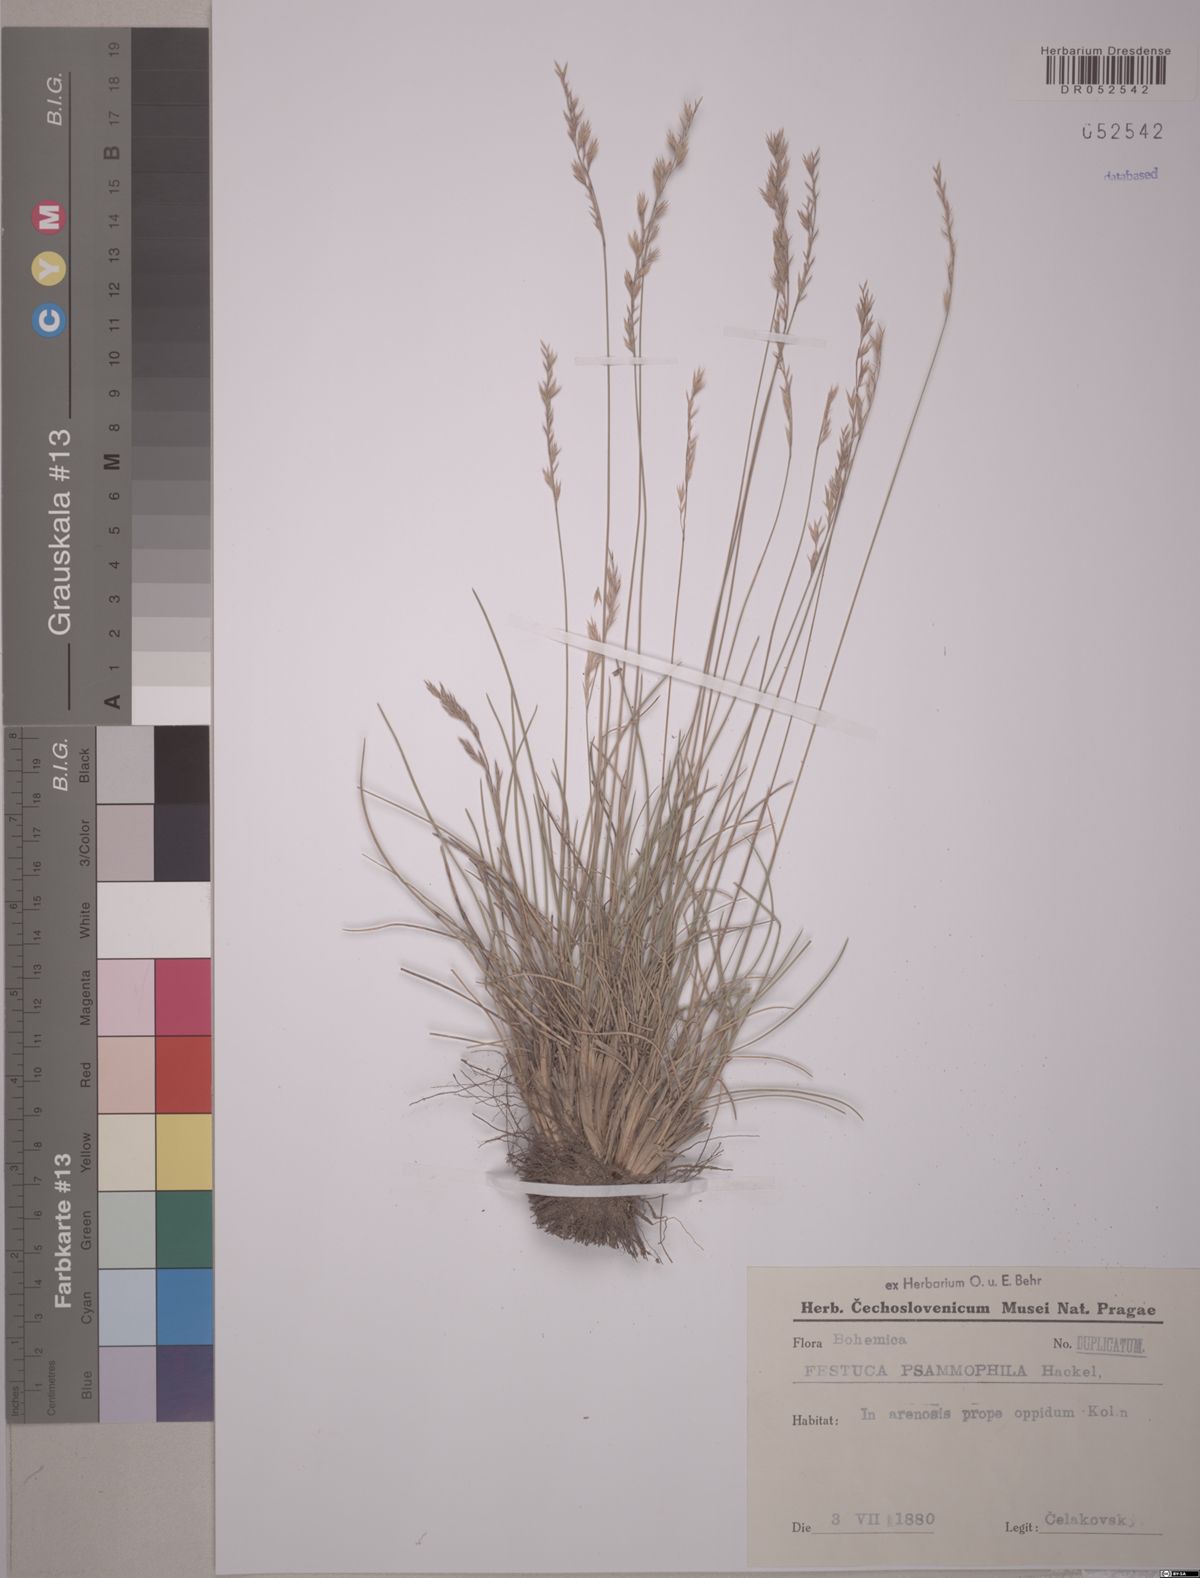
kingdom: Plantae
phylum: Tracheophyta
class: Liliopsida
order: Poales
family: Poaceae
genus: Festuca
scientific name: Festuca psammophila
